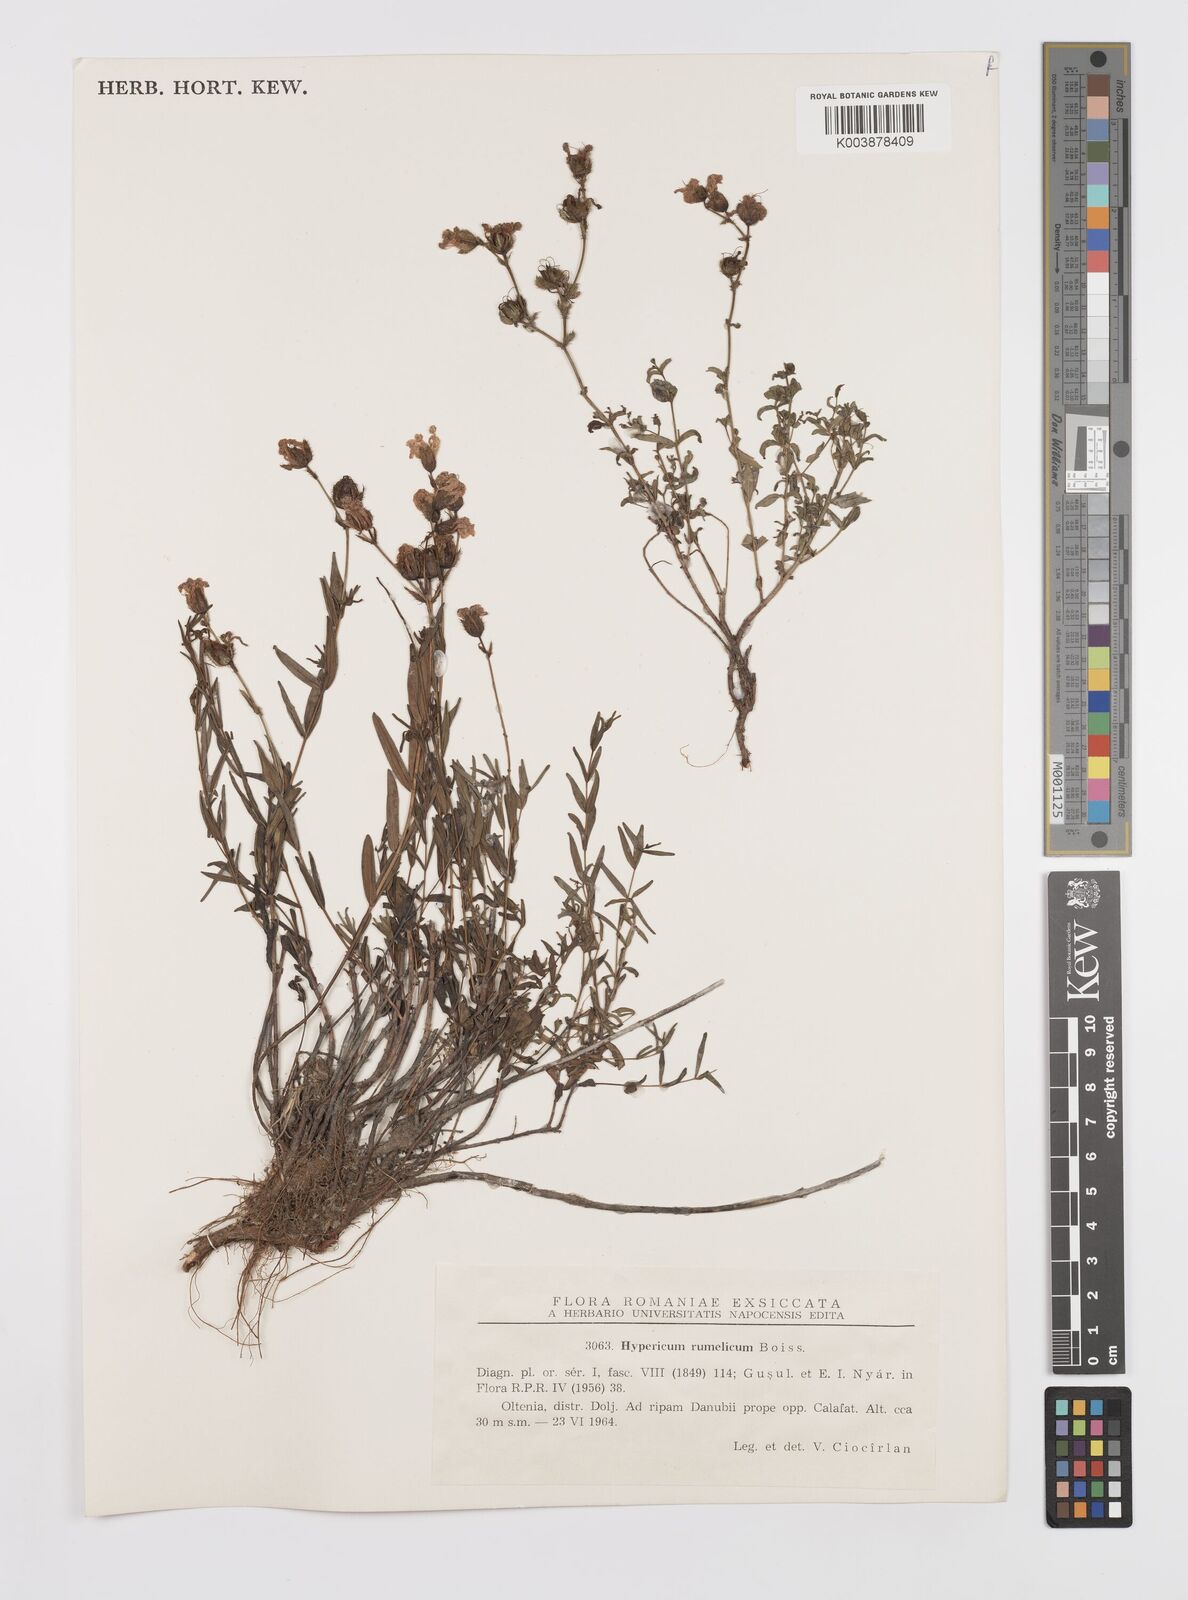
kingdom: Plantae
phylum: Tracheophyta
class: Magnoliopsida
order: Malpighiales
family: Hypericaceae
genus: Hypericum
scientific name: Hypericum rumeliacum
